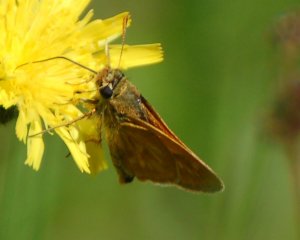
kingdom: Animalia
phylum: Arthropoda
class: Insecta
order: Lepidoptera
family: Hesperiidae
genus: Polites
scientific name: Polites
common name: Long Dash Skipper
